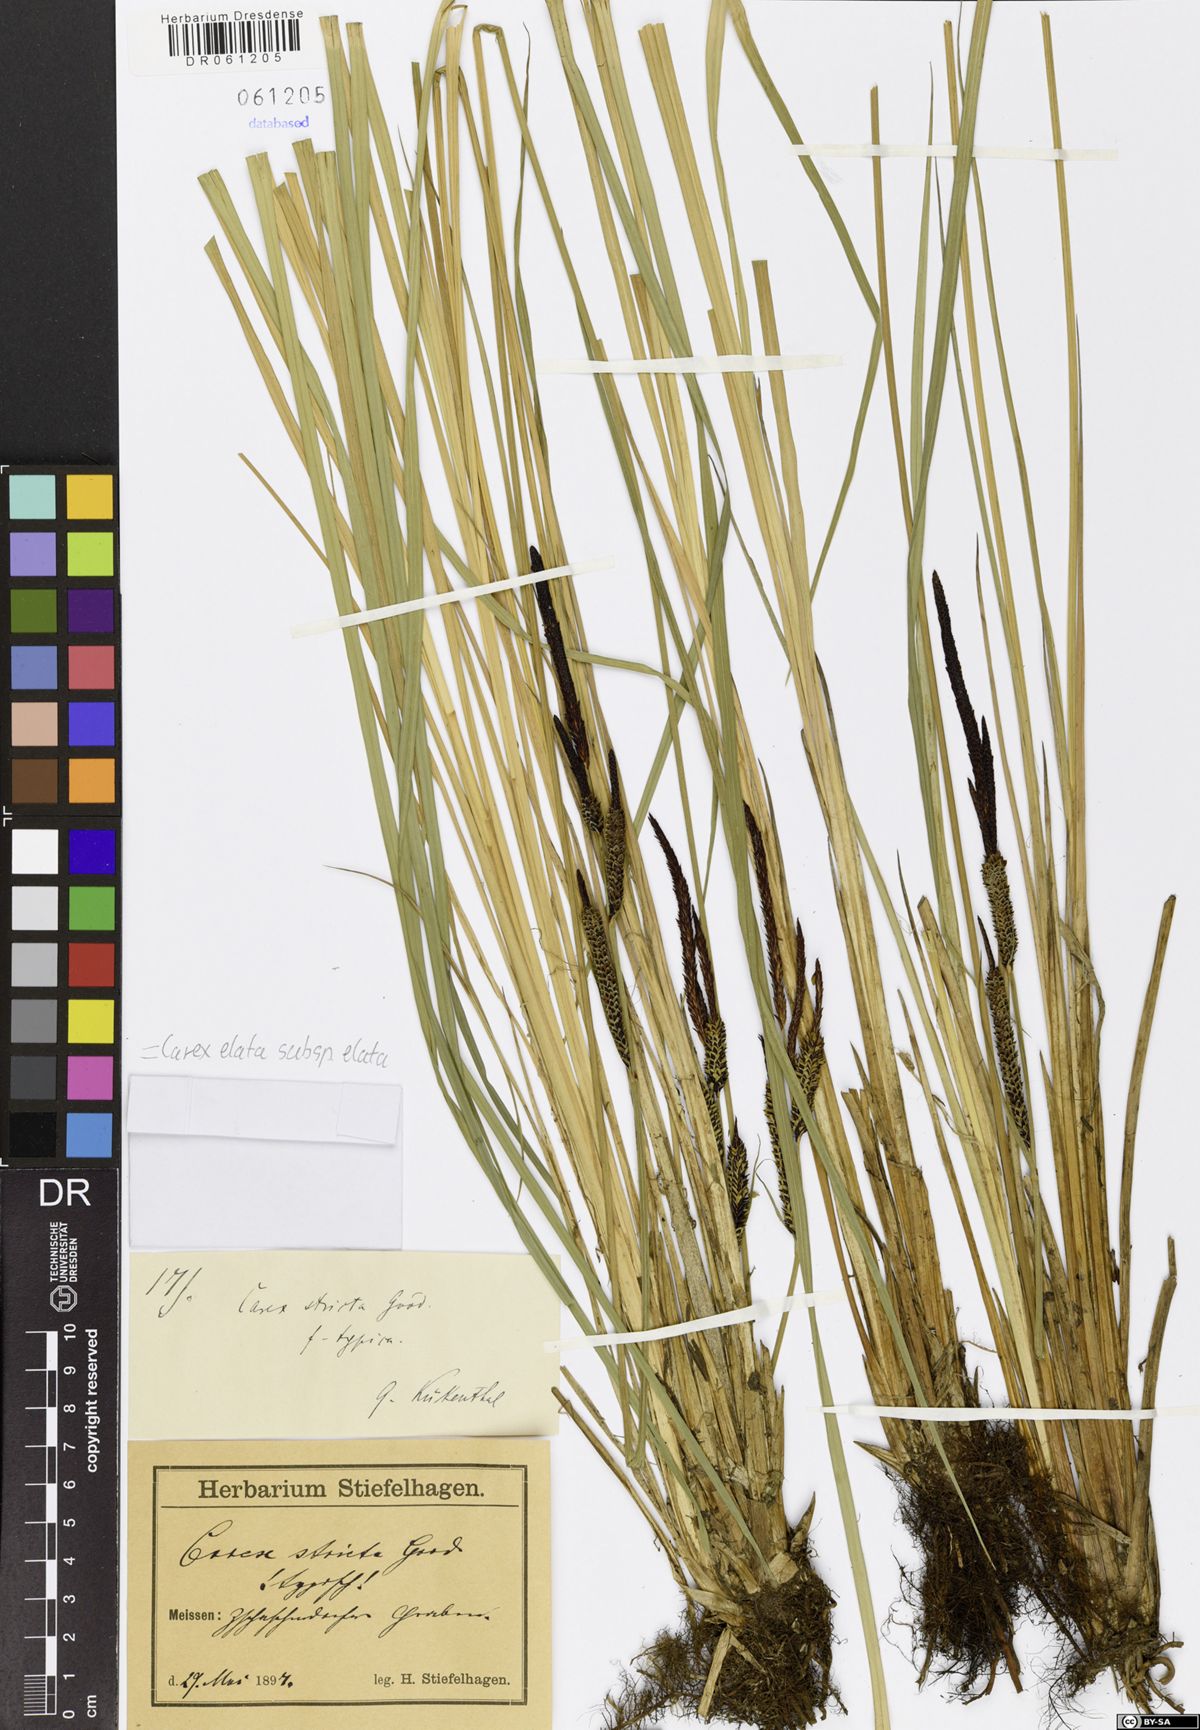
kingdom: Plantae
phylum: Tracheophyta
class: Liliopsida
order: Poales
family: Cyperaceae
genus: Carex
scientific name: Carex elata
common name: Tufted sedge
